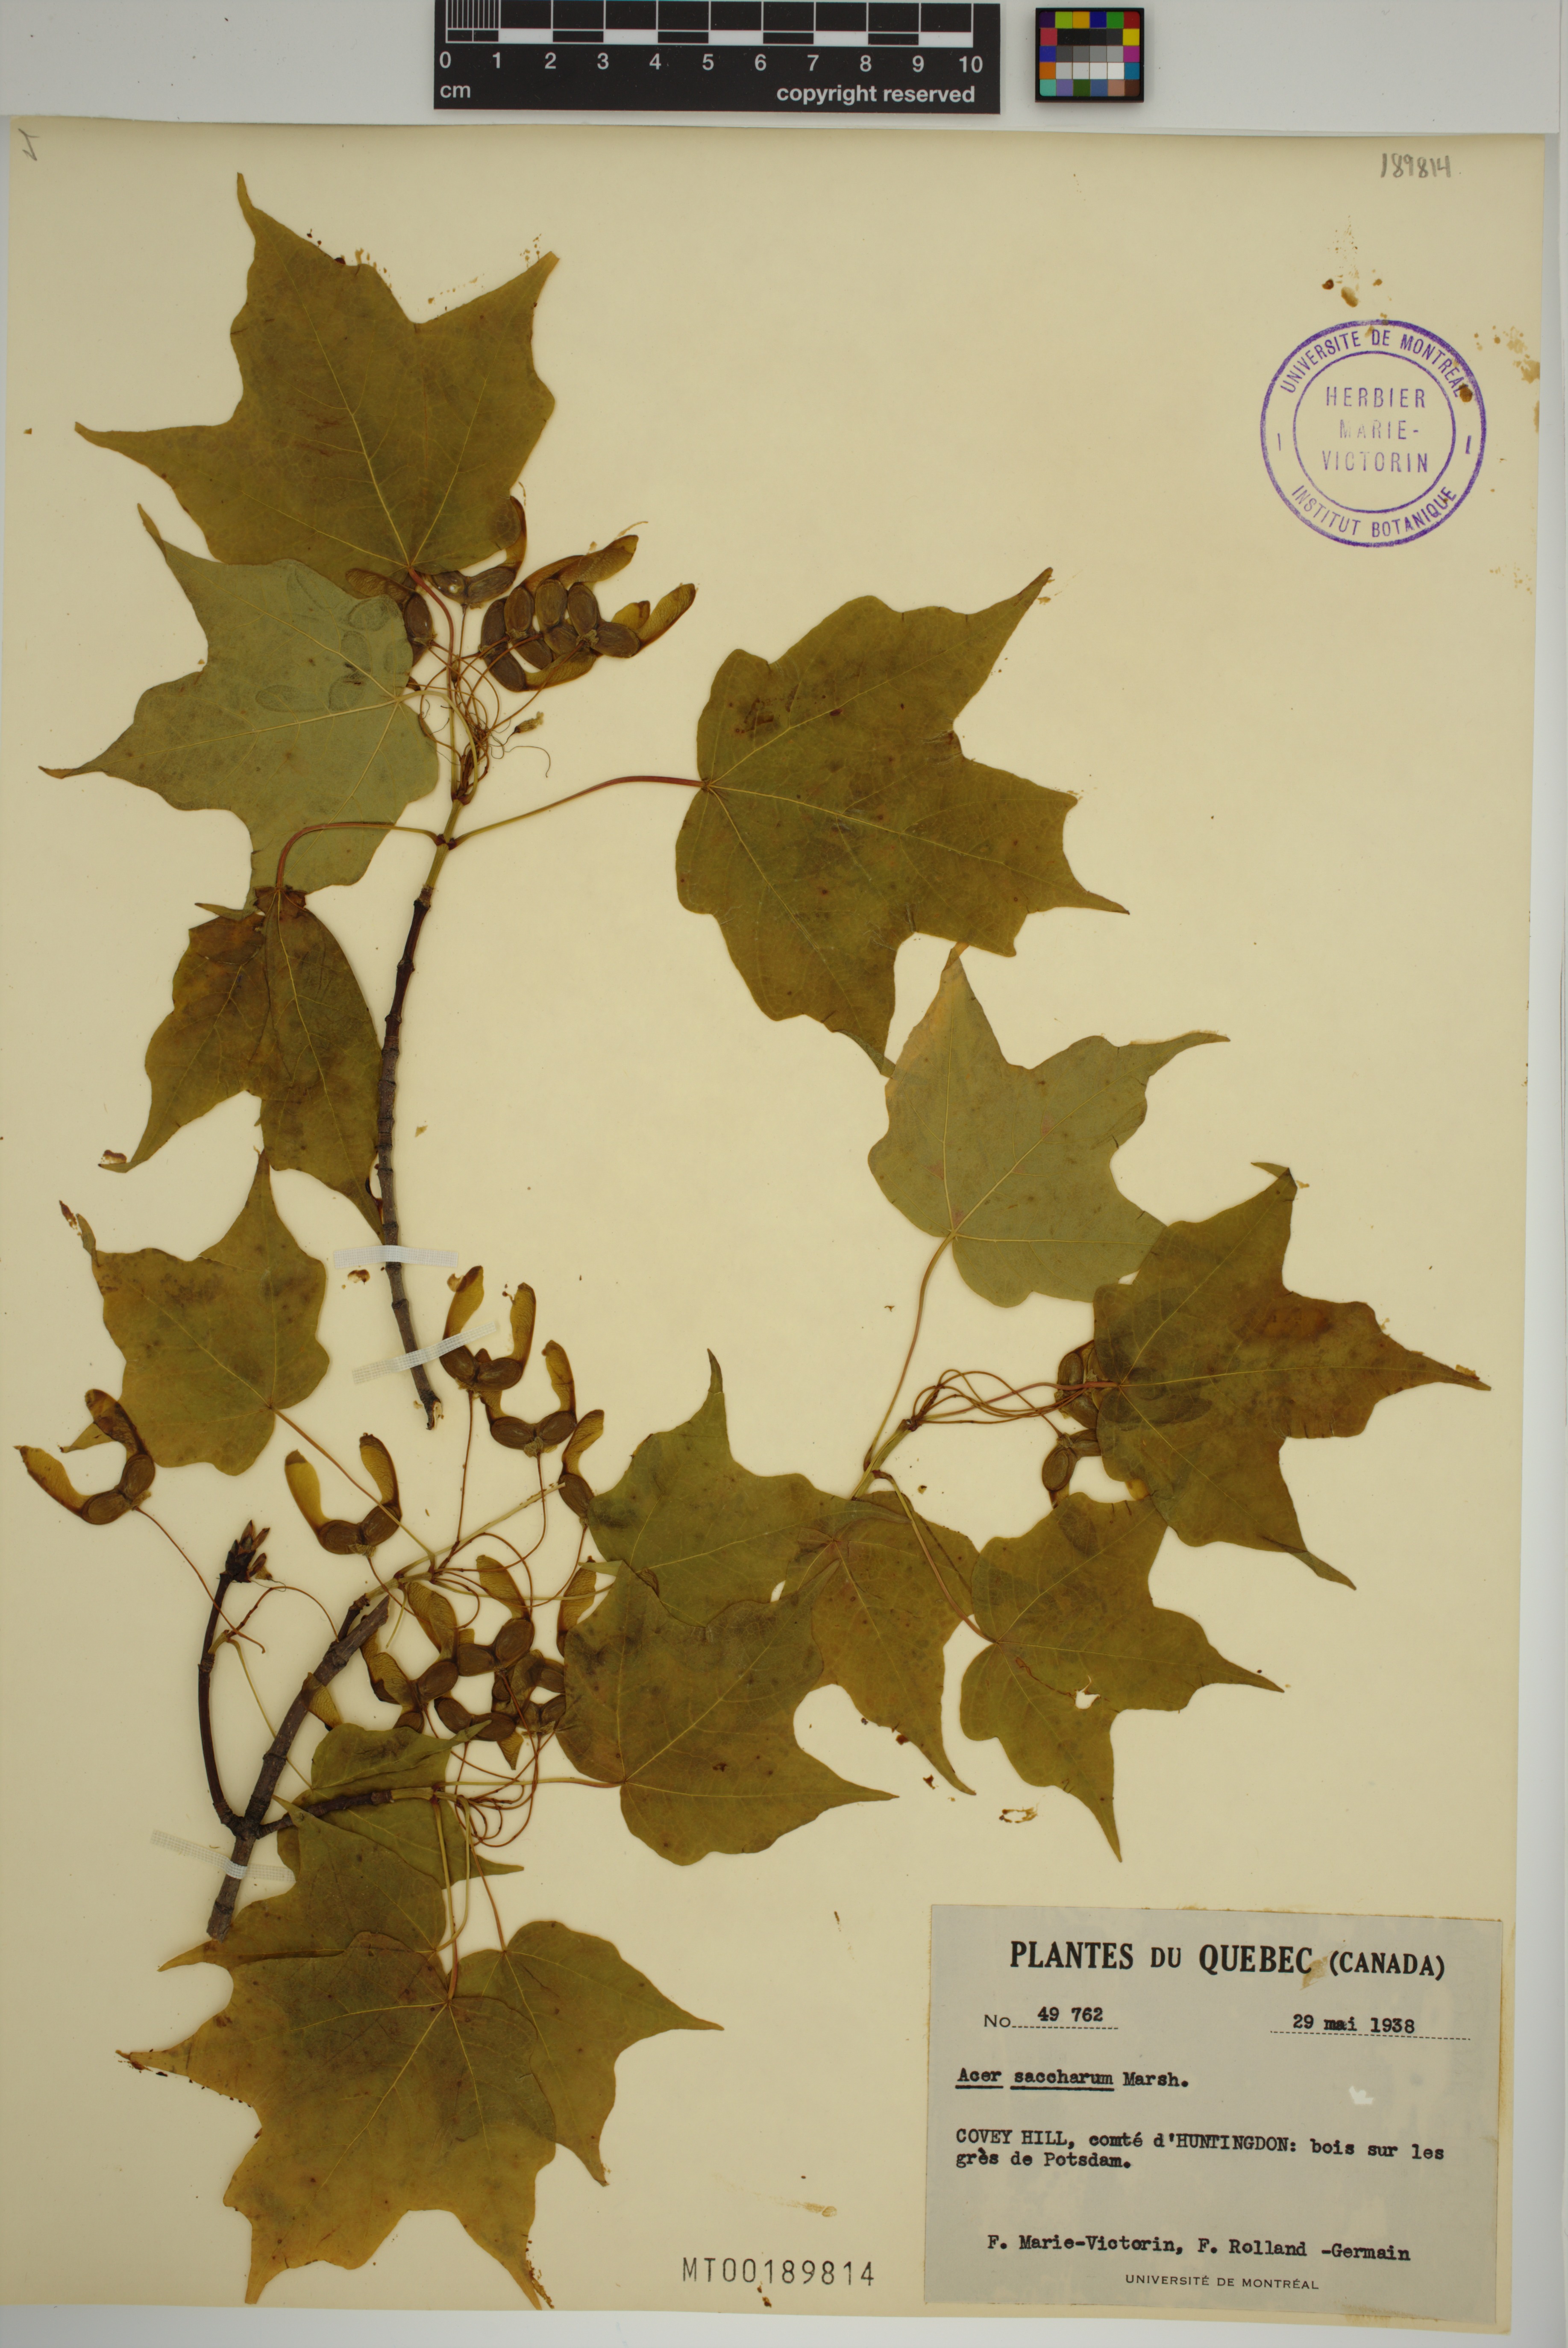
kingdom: Plantae
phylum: Tracheophyta
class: Magnoliopsida
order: Sapindales
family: Sapindaceae
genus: Acer
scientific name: Acer saccharum
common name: Sugar maple
